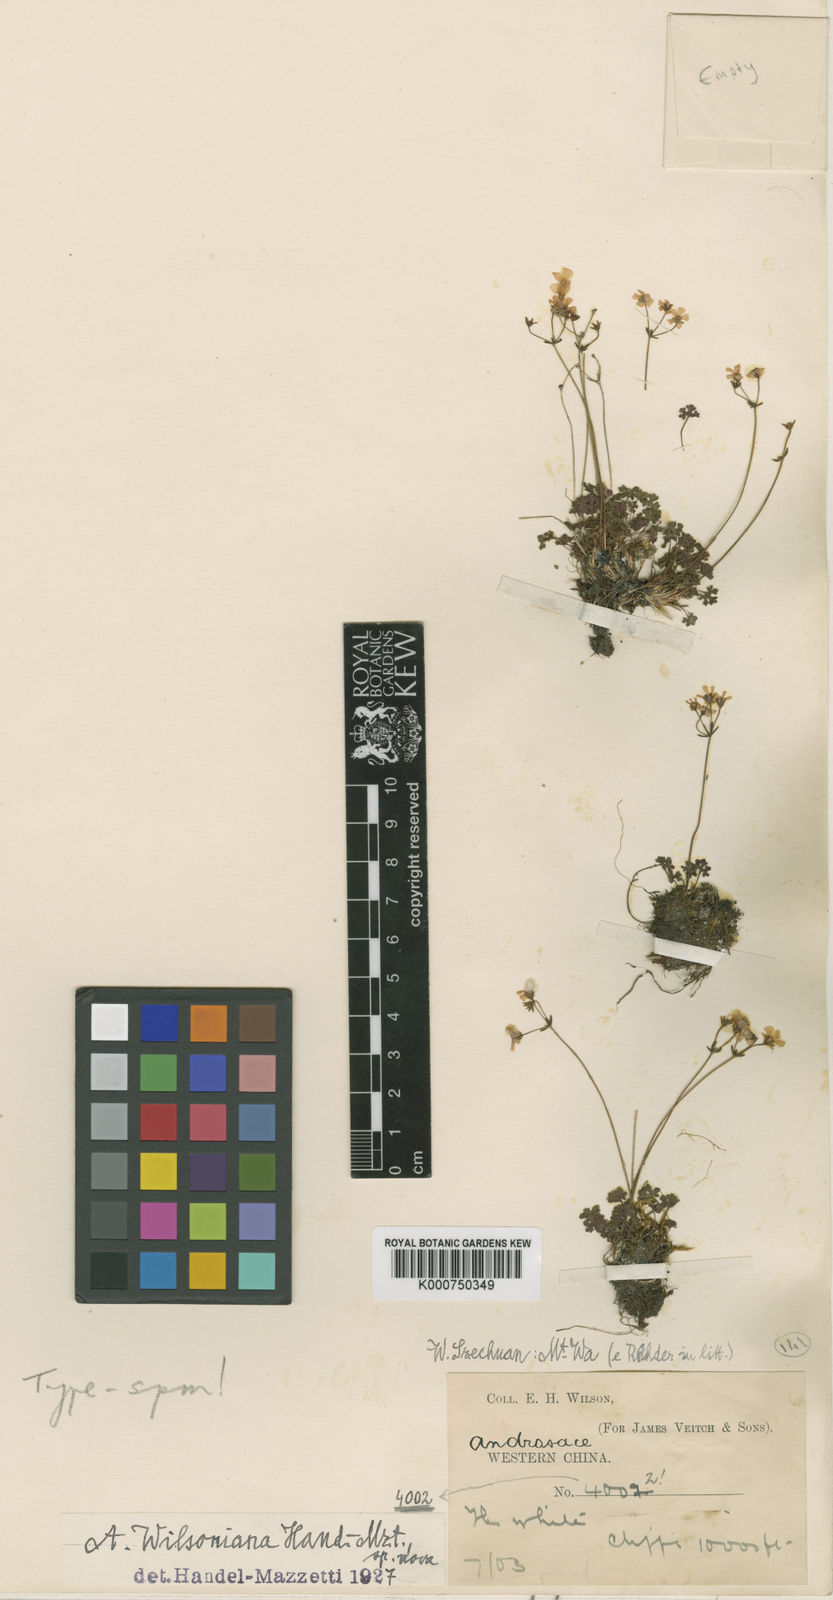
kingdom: Plantae
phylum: Tracheophyta
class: Magnoliopsida
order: Ericales
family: Primulaceae
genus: Androsace
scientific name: Androsace wilsoniana
